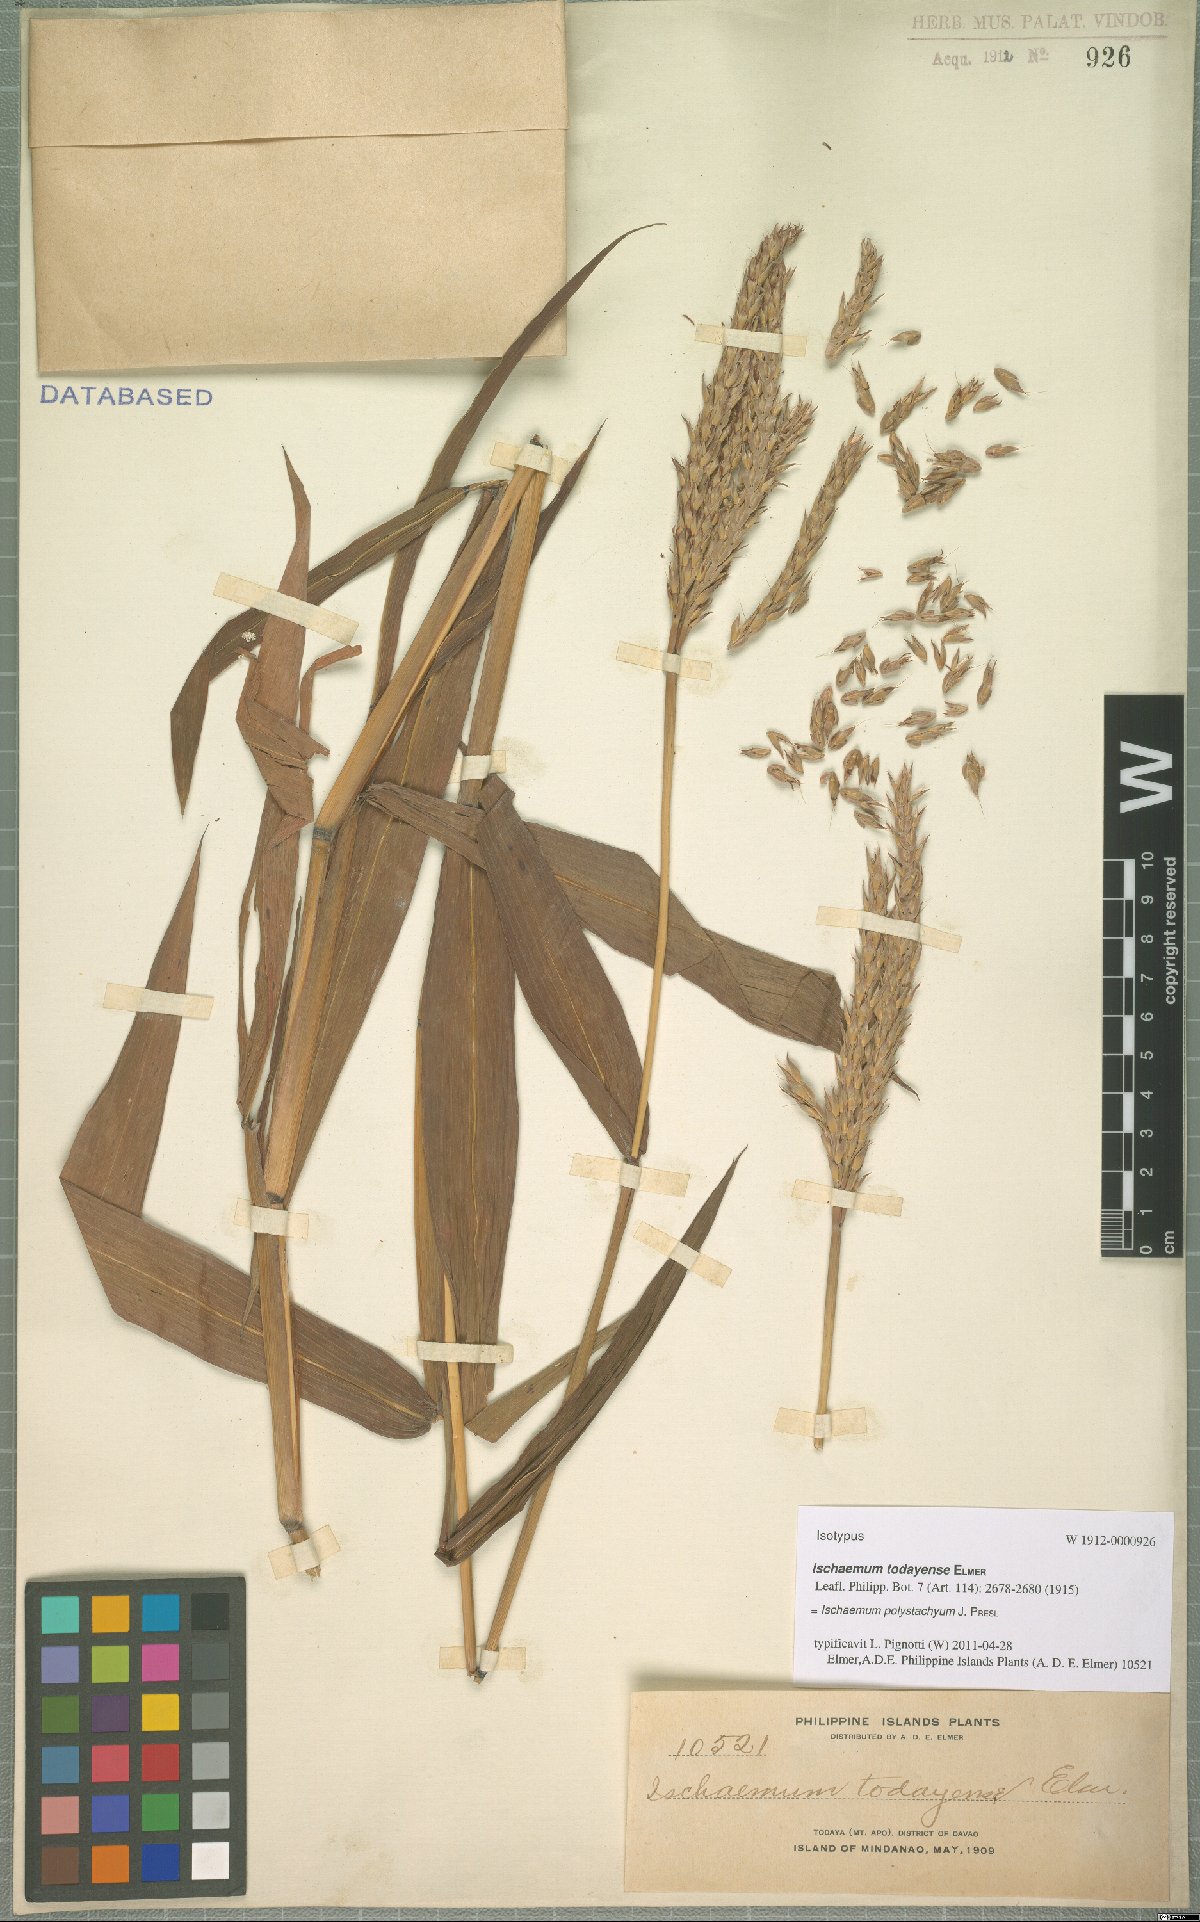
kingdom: Plantae
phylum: Tracheophyta
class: Liliopsida
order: Poales
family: Poaceae
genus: Ischaemum
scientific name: Ischaemum polystachyum
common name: Paddle grass
